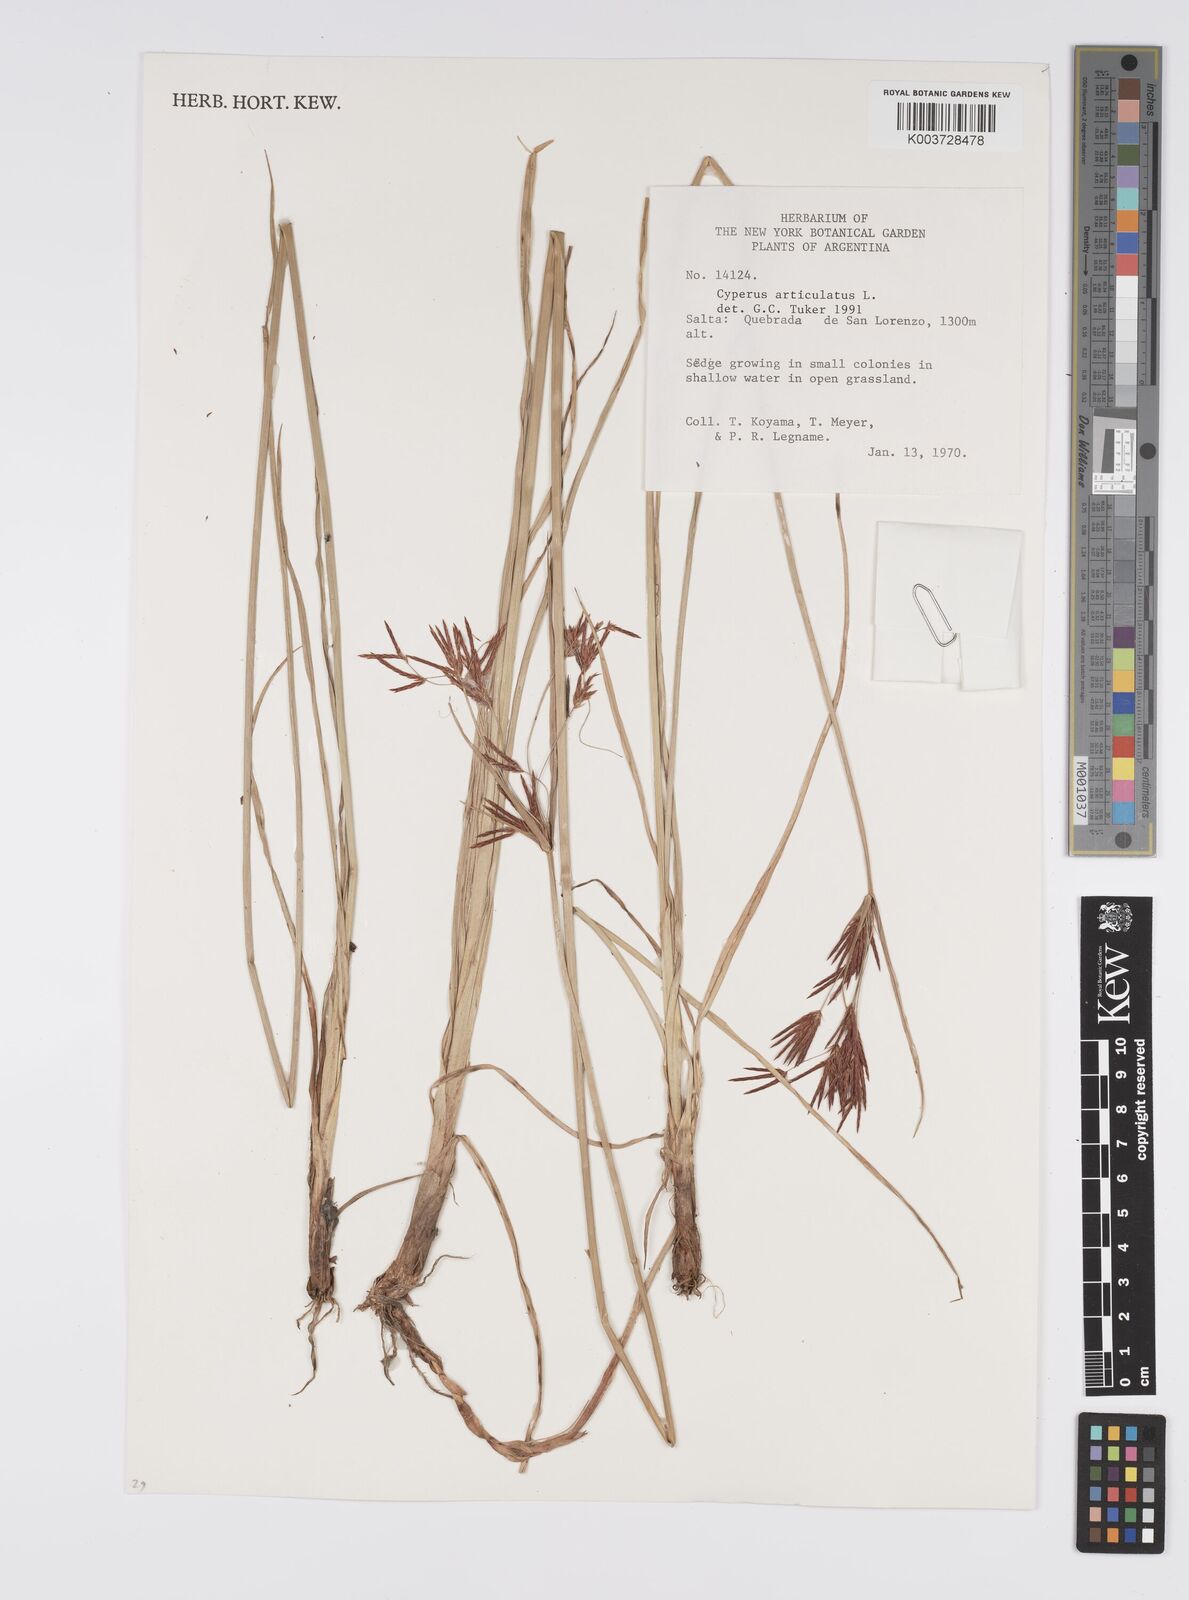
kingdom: Plantae
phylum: Tracheophyta
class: Liliopsida
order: Poales
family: Cyperaceae
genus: Cyperus
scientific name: Cyperus articulatus
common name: Jointed flatsedge
